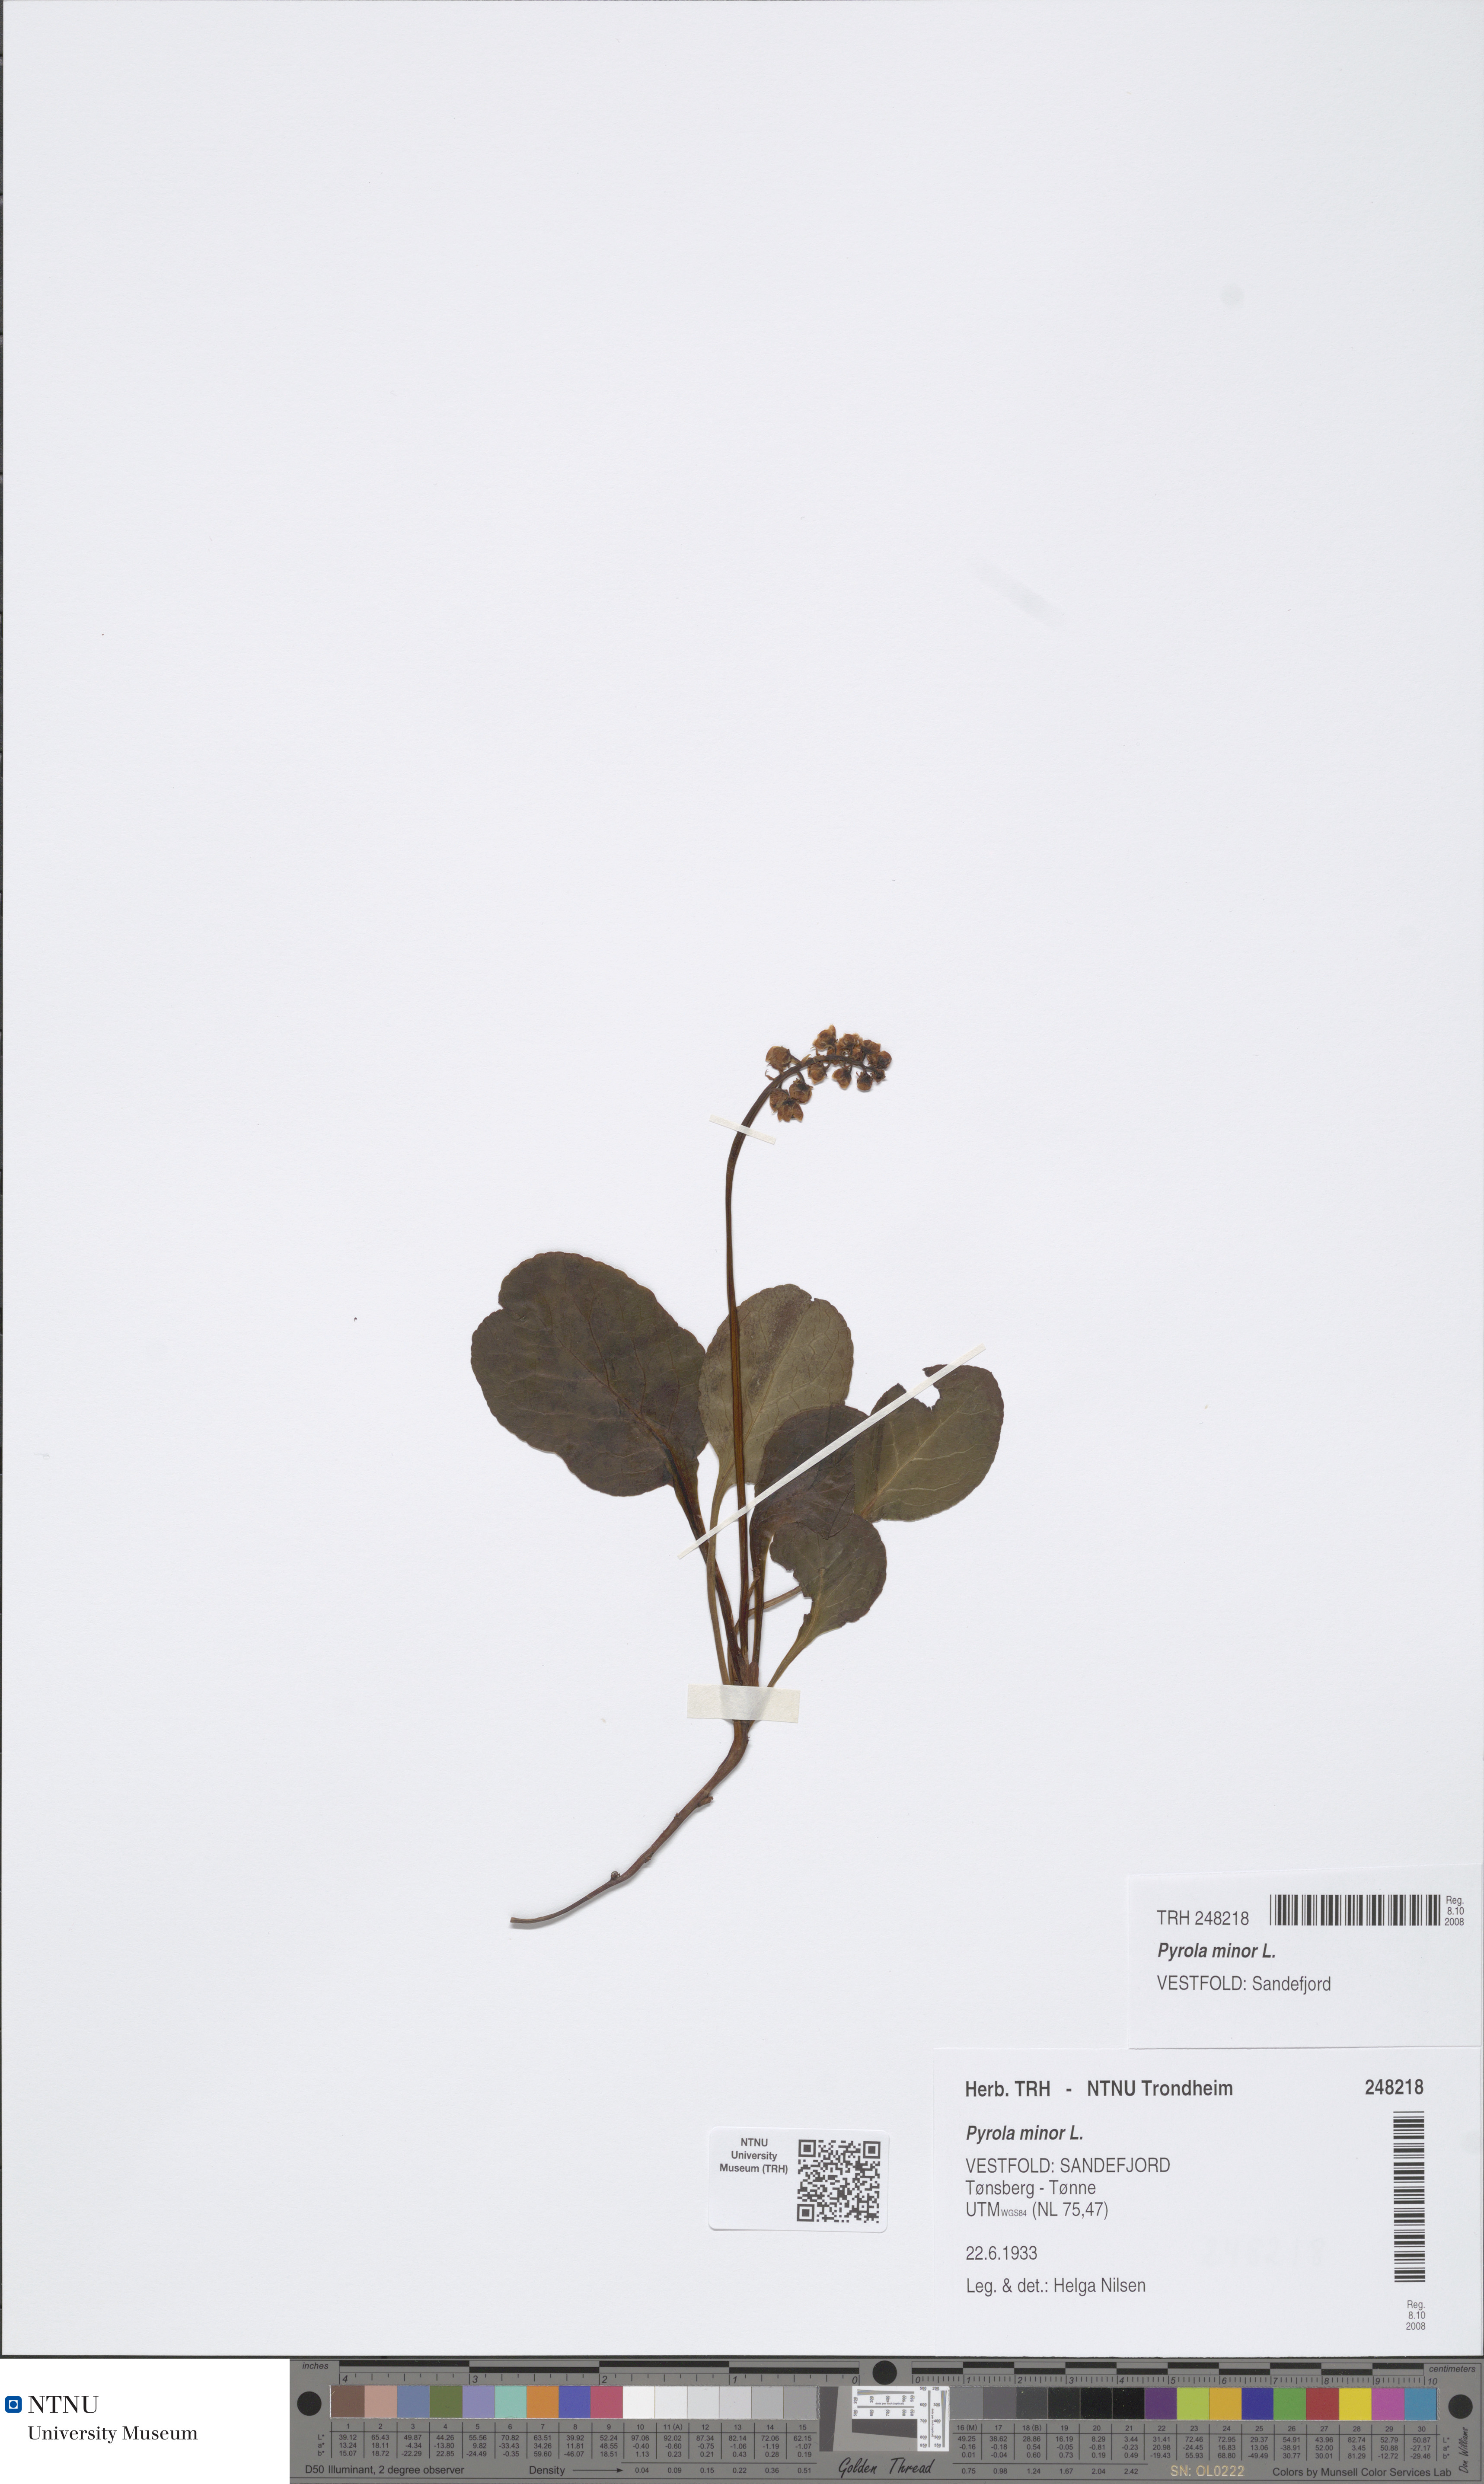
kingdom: Plantae
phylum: Tracheophyta
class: Magnoliopsida
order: Ericales
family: Ericaceae
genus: Pyrola
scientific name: Pyrola minor
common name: Common wintergreen
